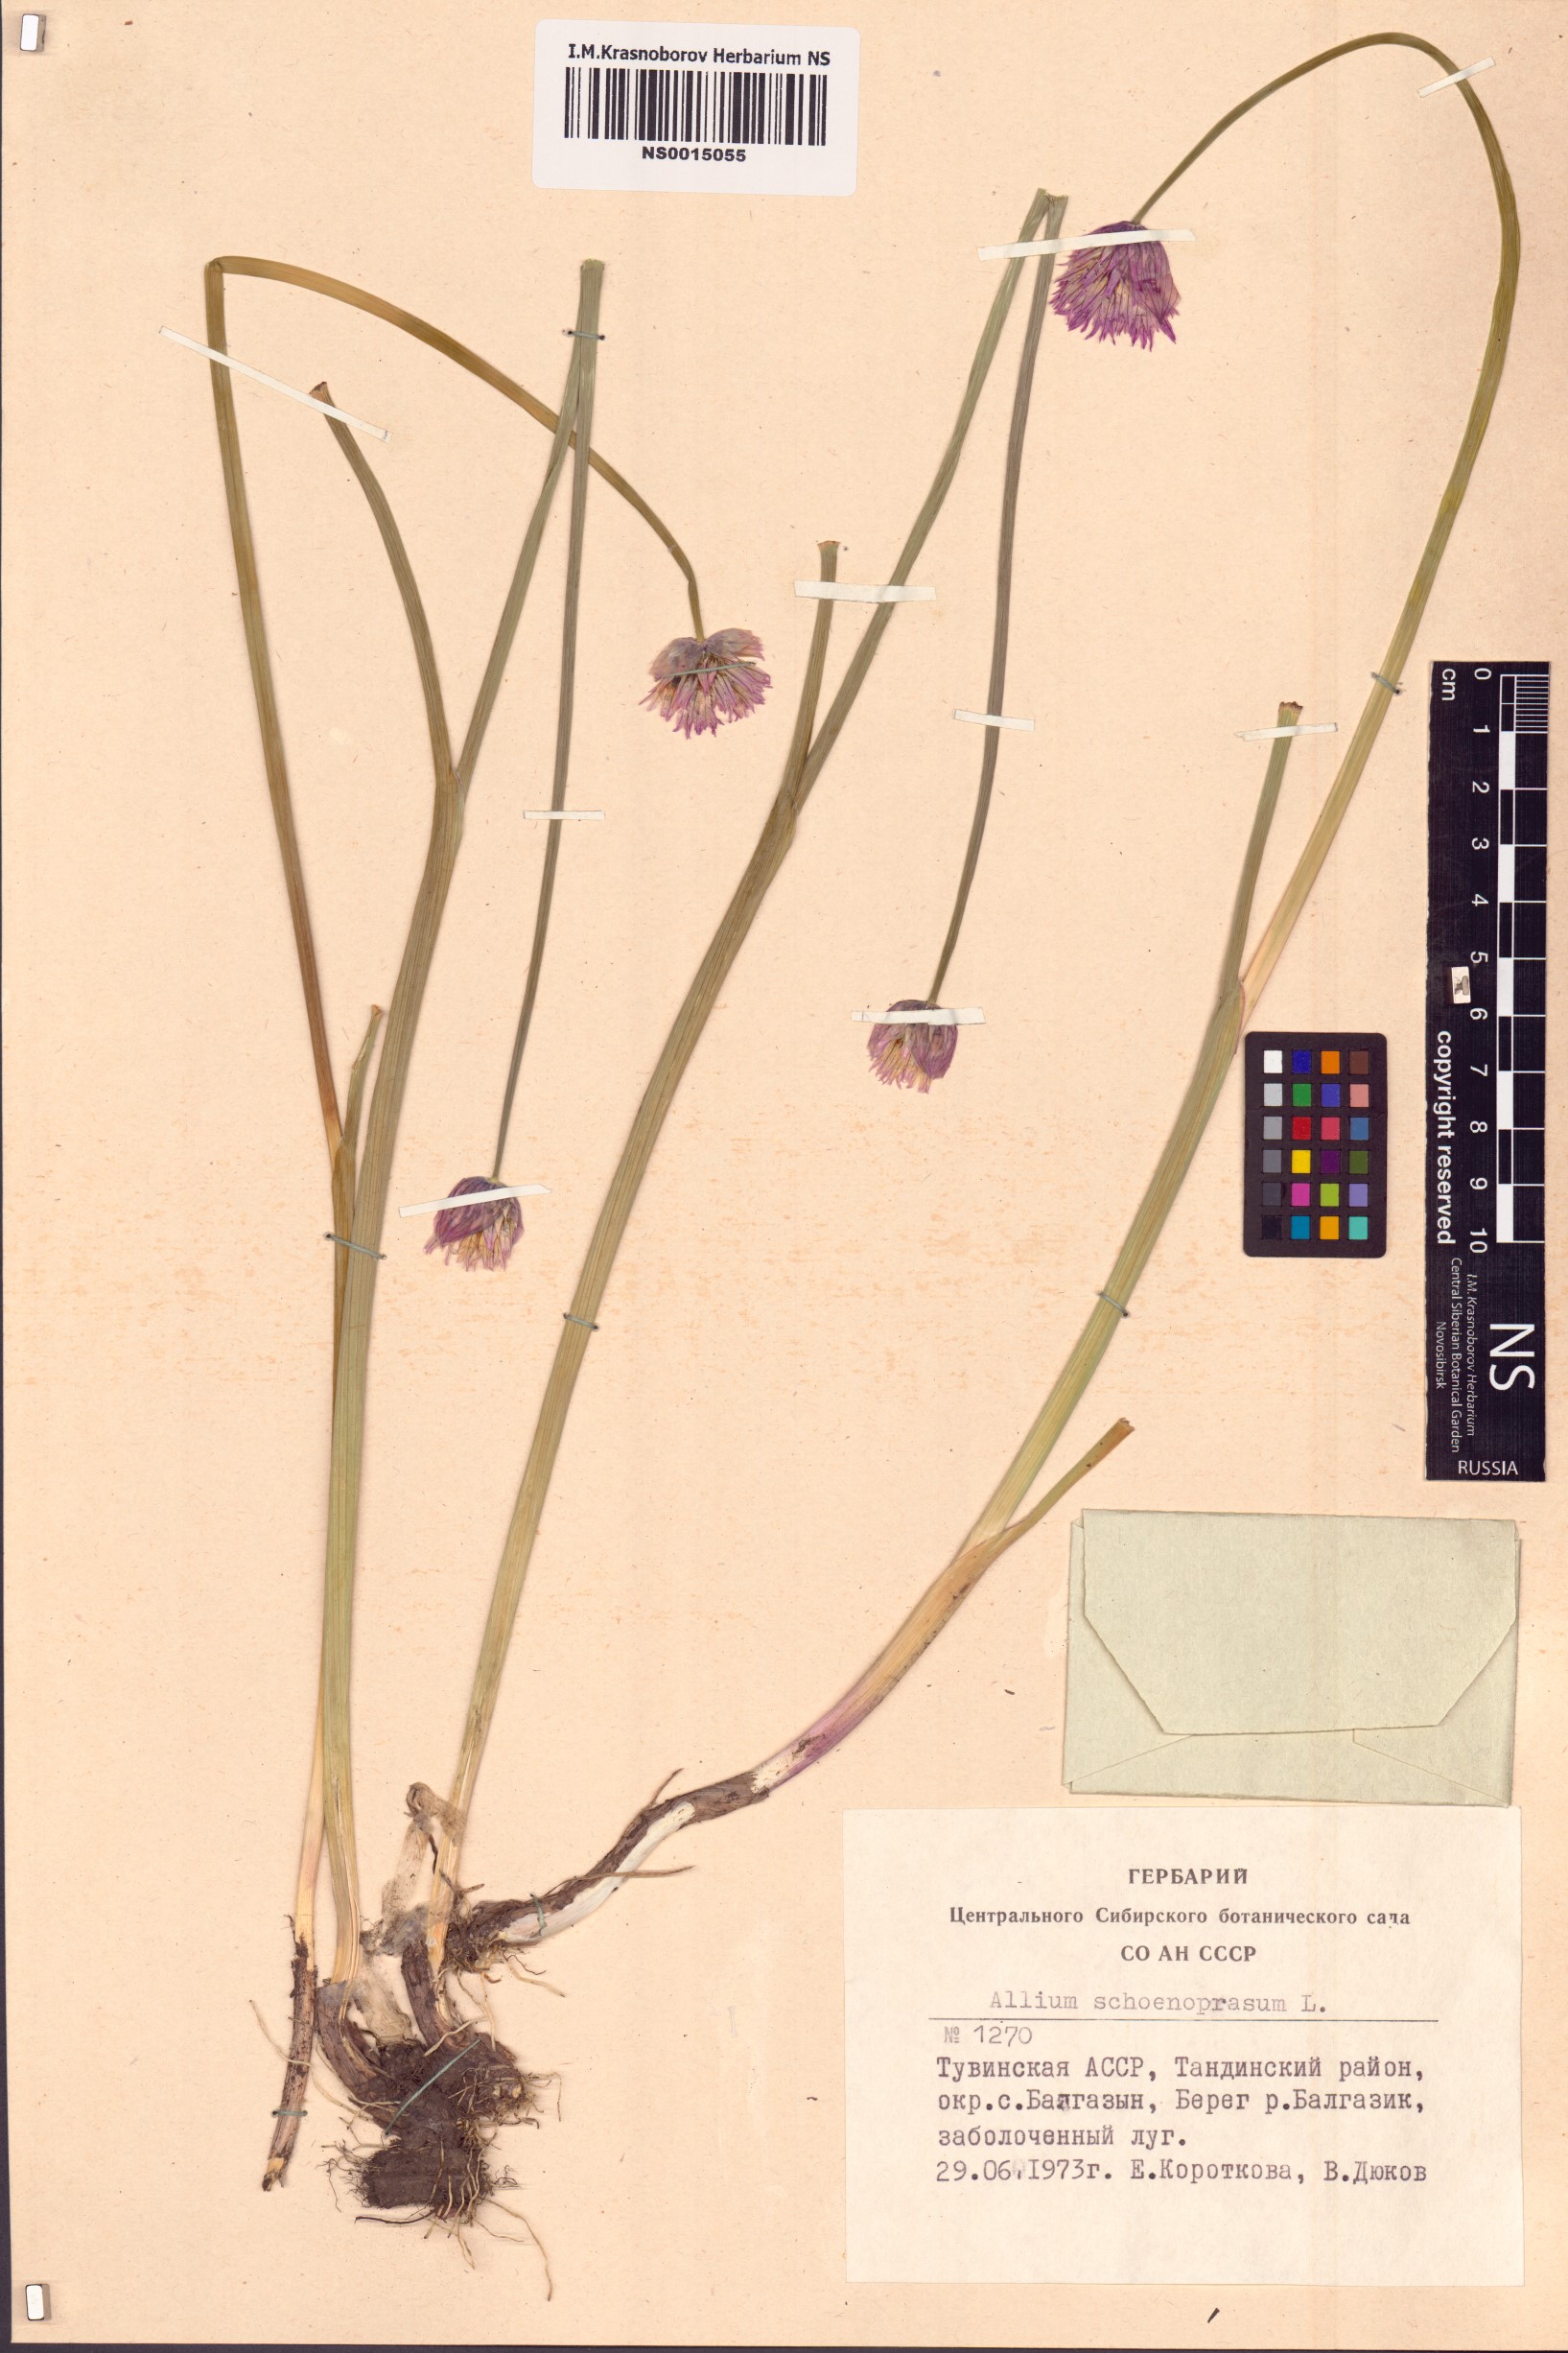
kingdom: Plantae
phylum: Tracheophyta
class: Liliopsida
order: Asparagales
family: Amaryllidaceae
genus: Allium
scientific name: Allium schoenoprasum
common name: Chives
